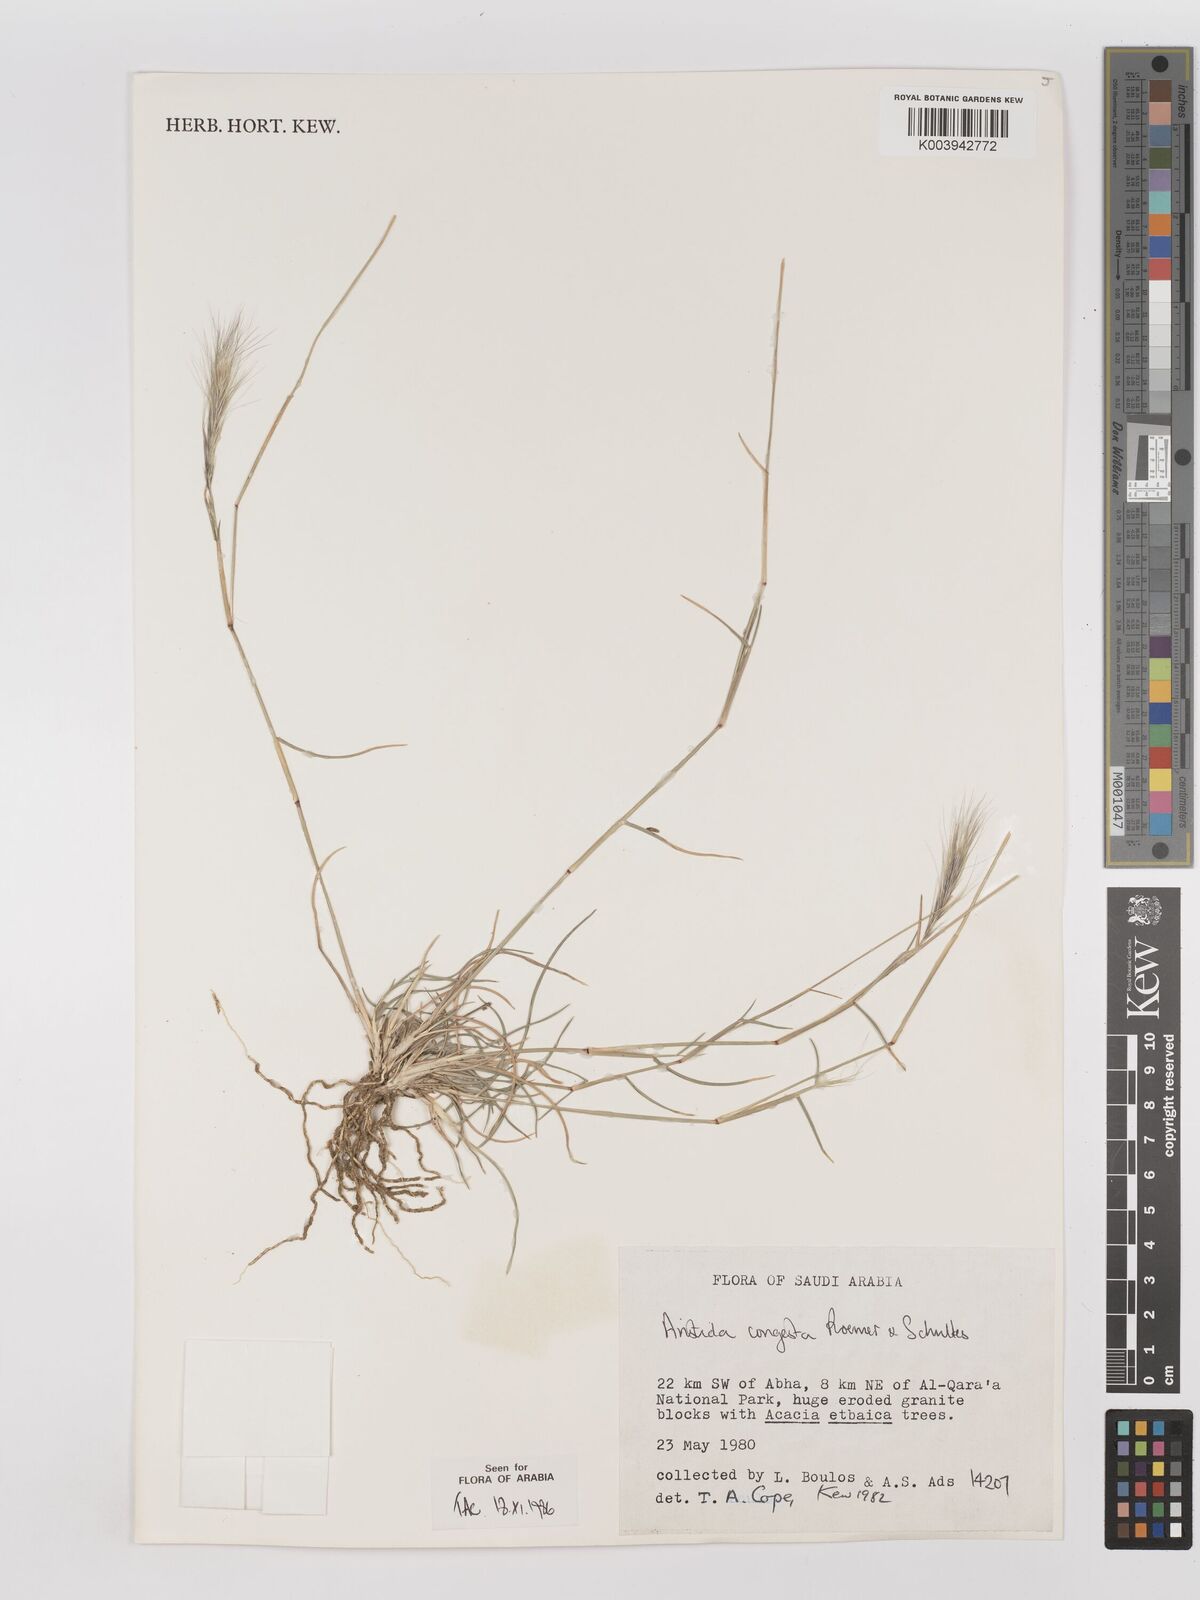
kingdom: Plantae
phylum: Tracheophyta
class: Liliopsida
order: Poales
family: Poaceae
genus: Aristida
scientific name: Aristida congesta
